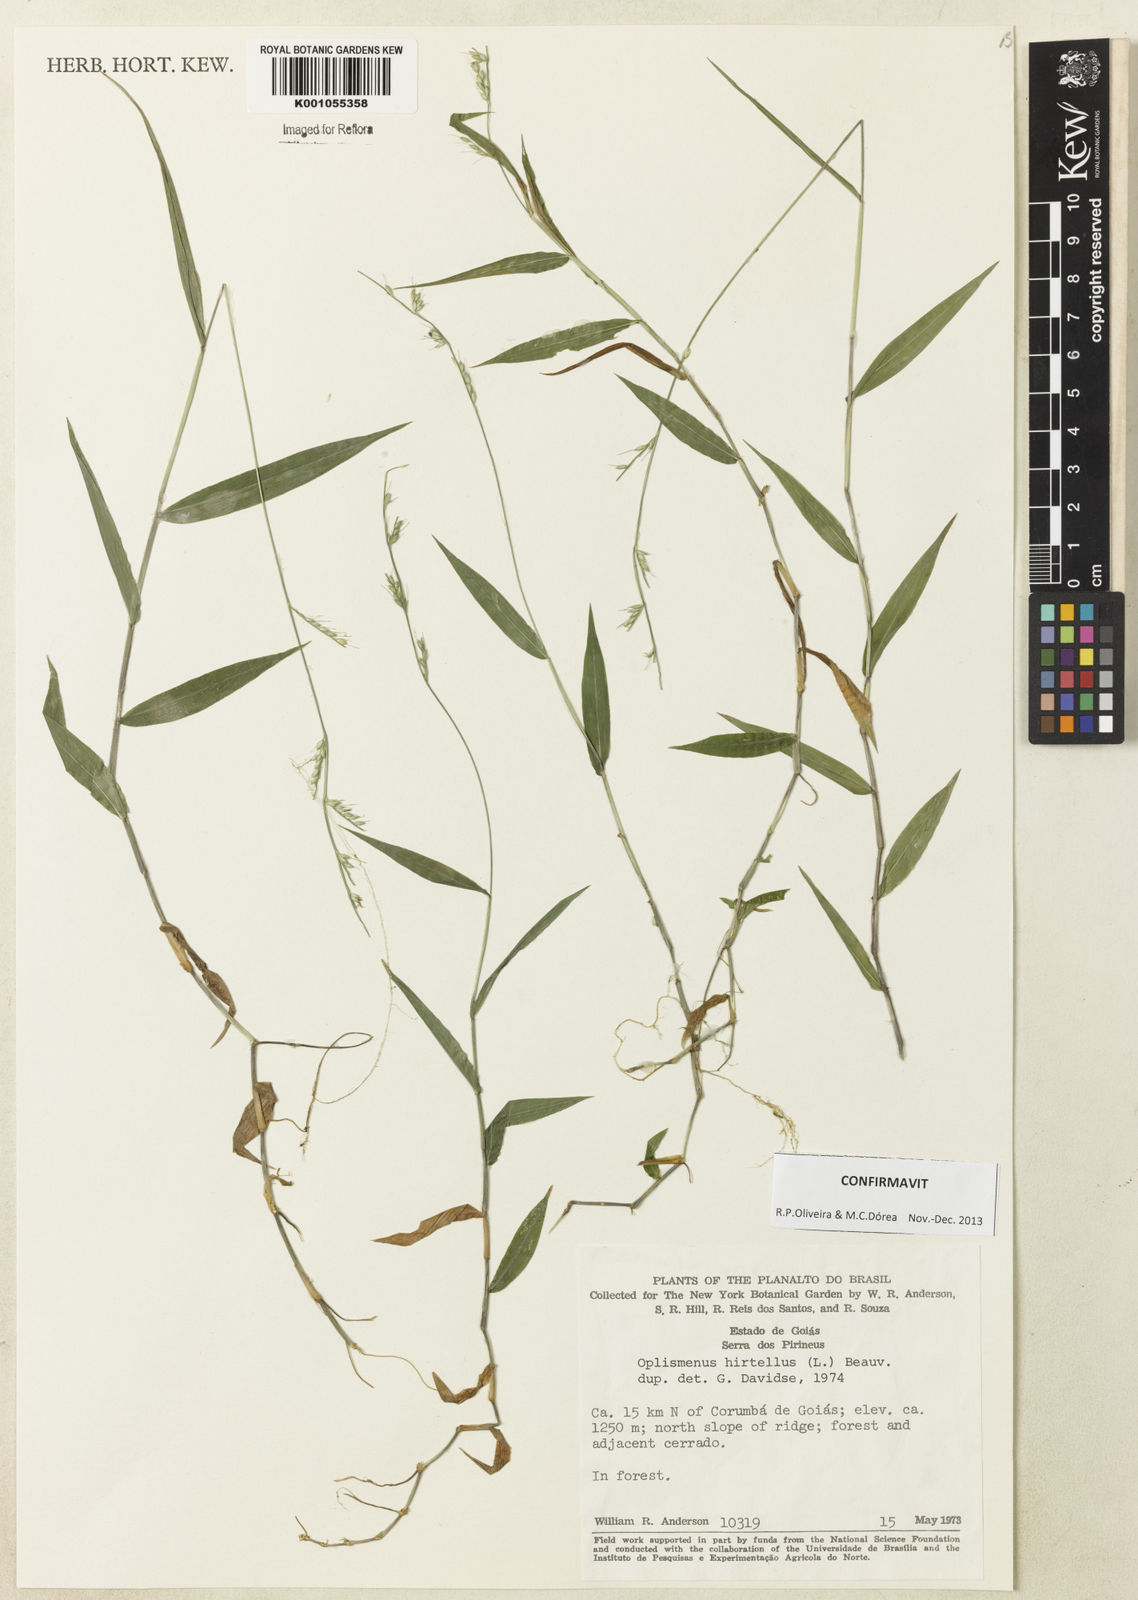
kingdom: Plantae
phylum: Tracheophyta
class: Liliopsida
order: Poales
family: Poaceae
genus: Oplismenus
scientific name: Oplismenus hirtellus
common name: Basketgrass
